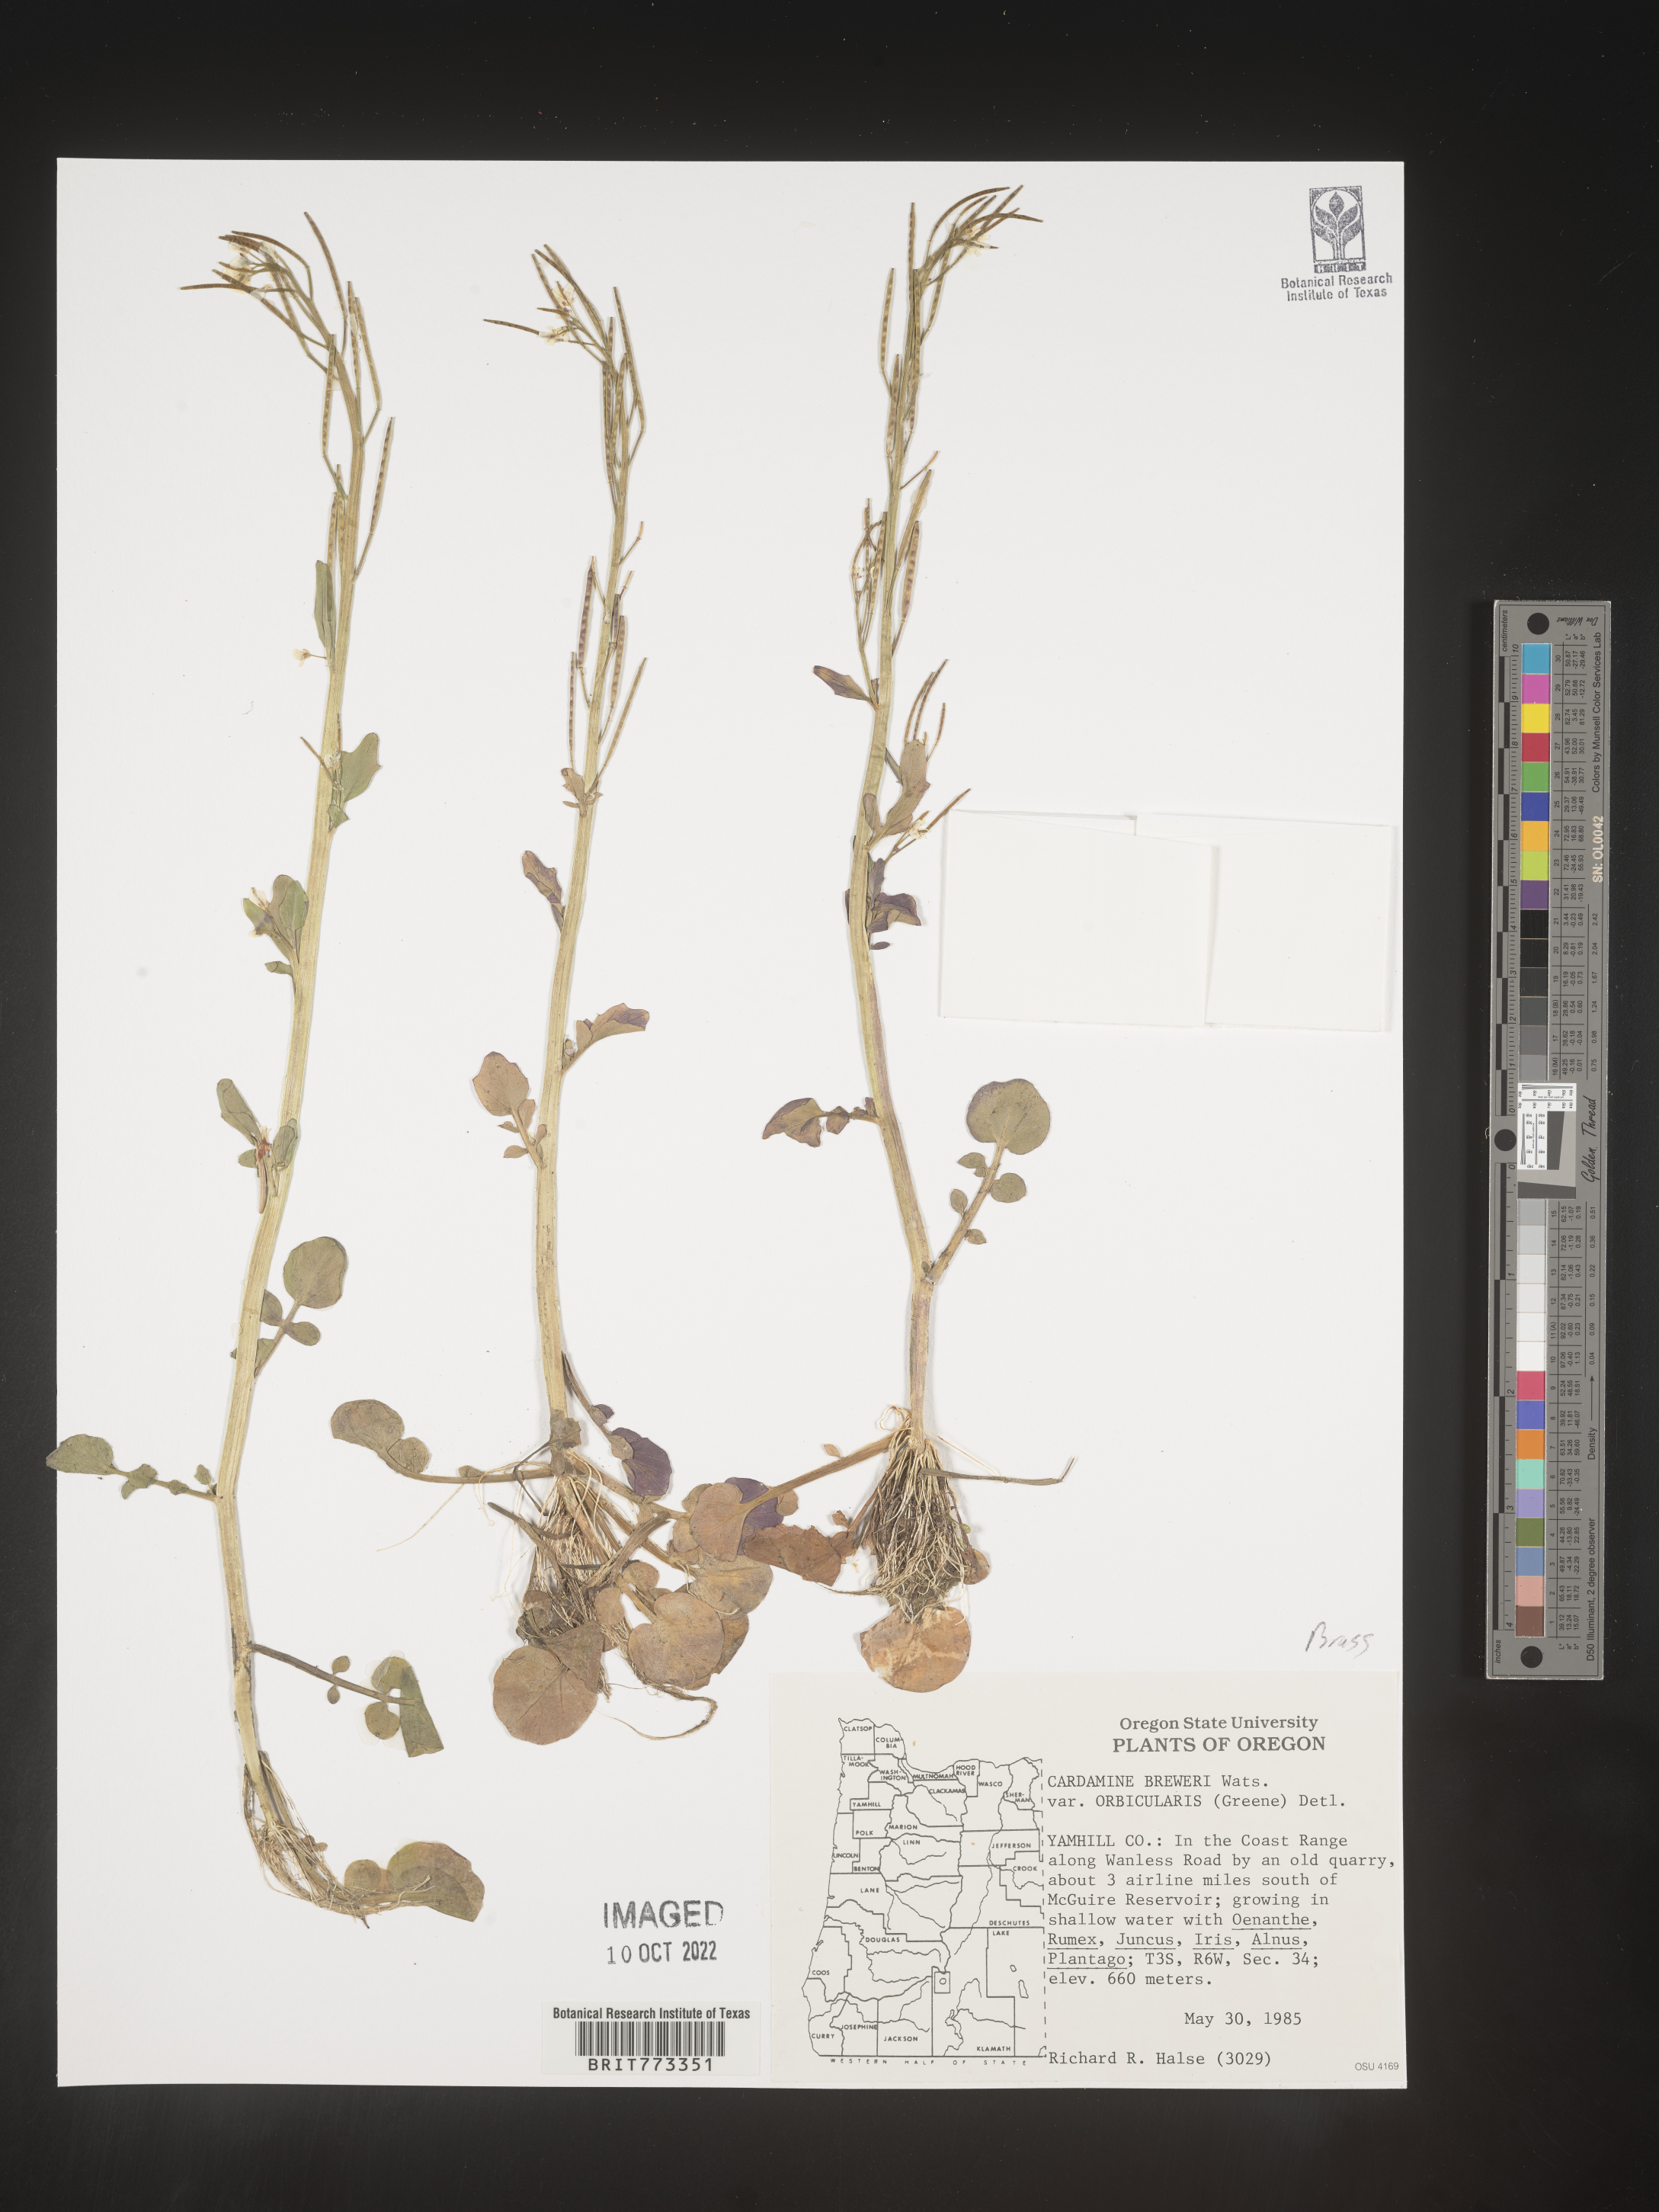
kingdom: Plantae
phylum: Tracheophyta
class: Magnoliopsida
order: Brassicales
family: Brassicaceae
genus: Cardamine
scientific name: Cardamine
